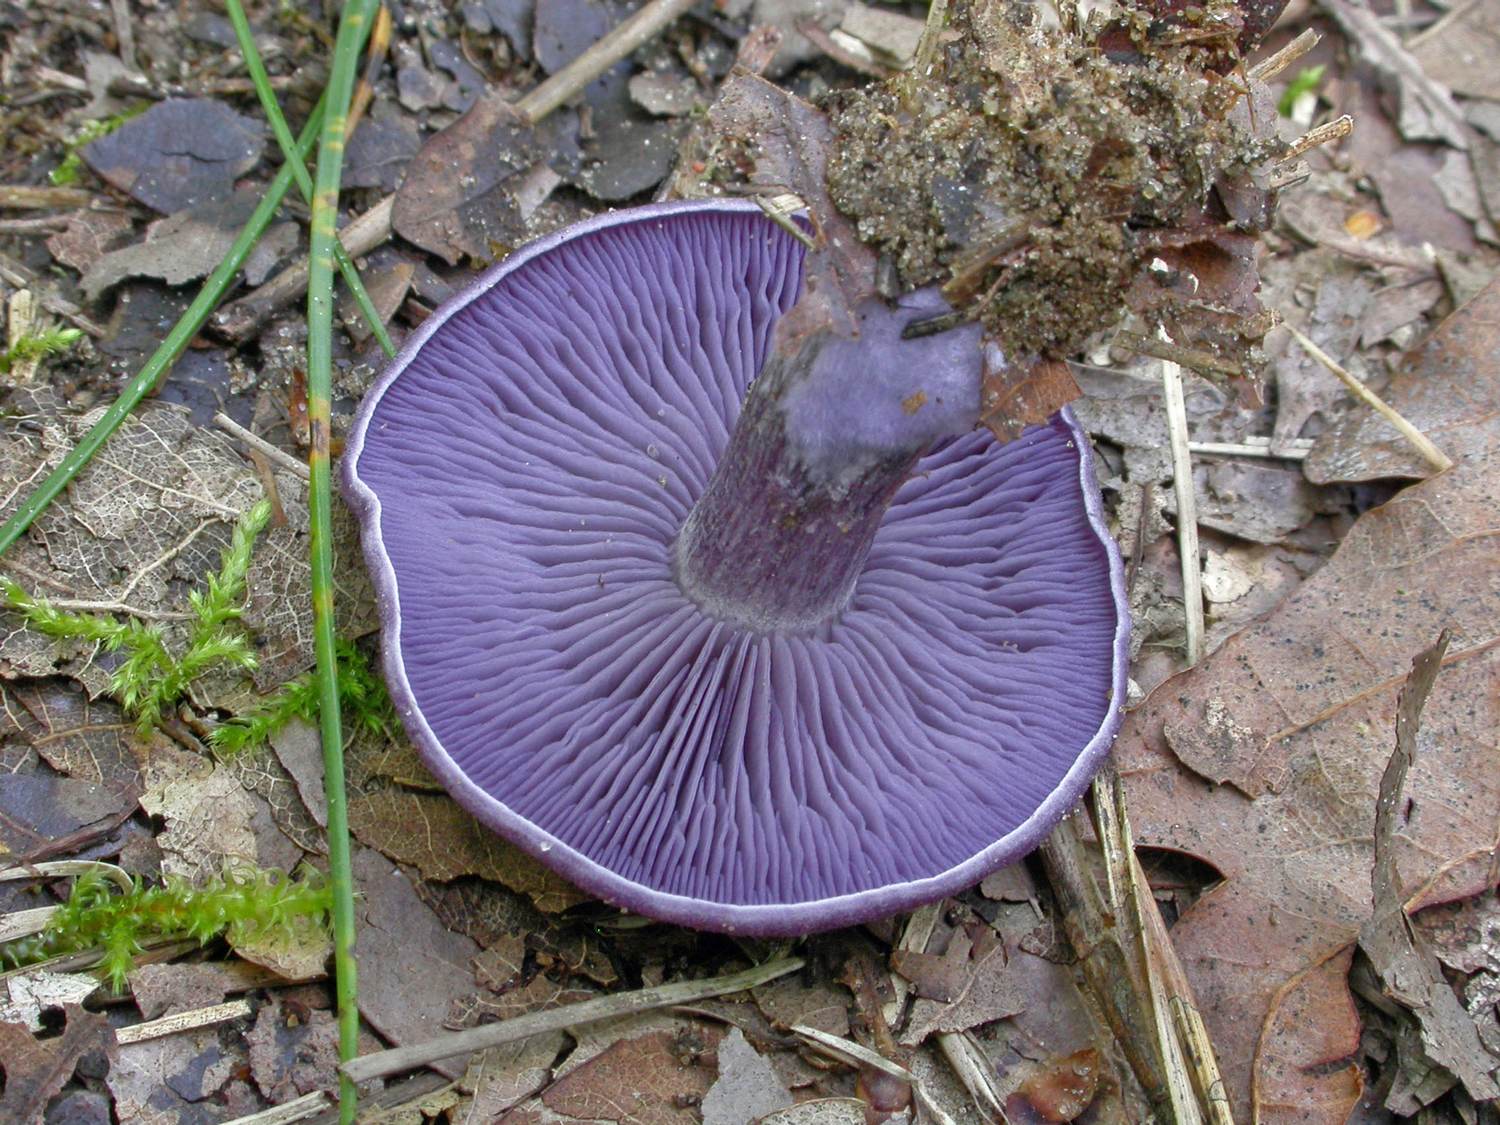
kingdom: Fungi
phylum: Basidiomycota
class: Agaricomycetes
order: Agaricales
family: Tricholomataceae
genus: Lepista
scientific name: Lepista lilacea
